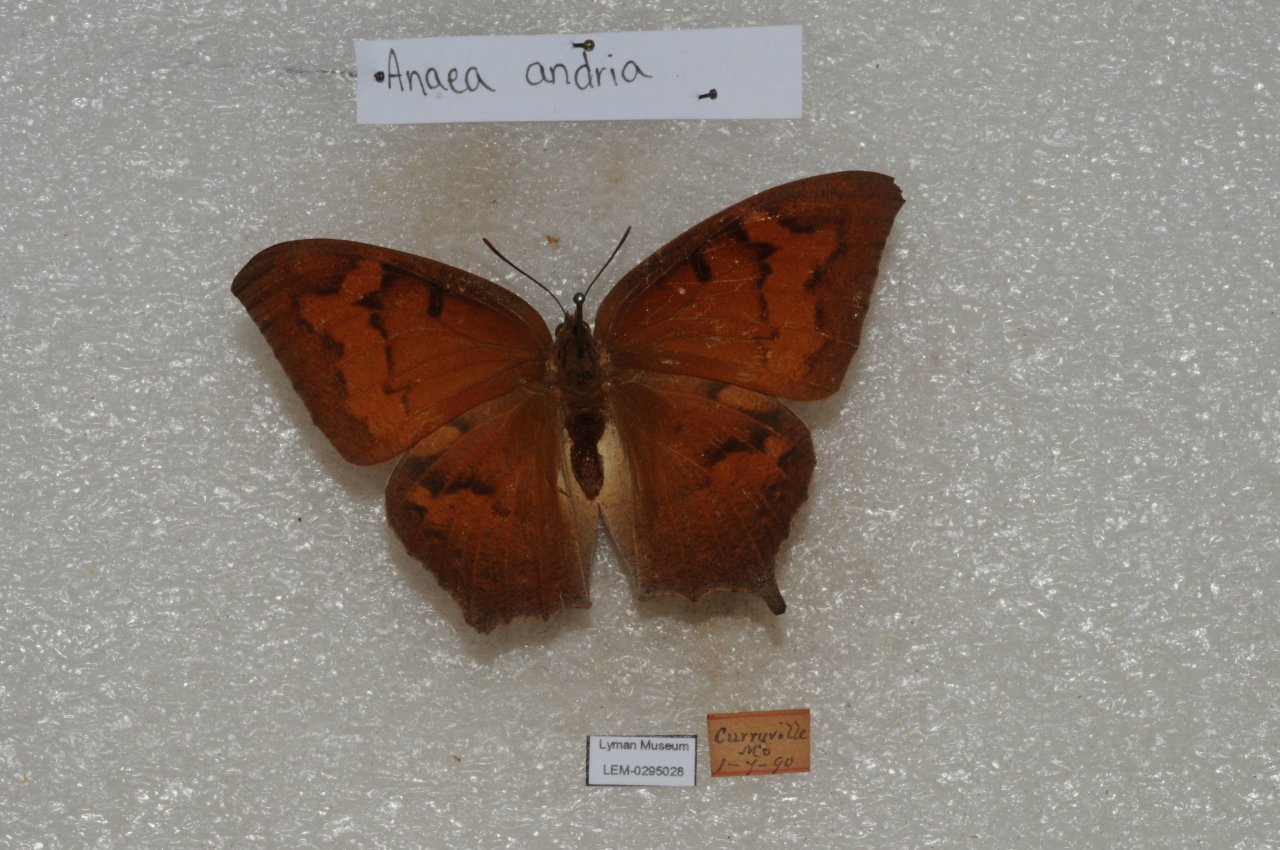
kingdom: Animalia
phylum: Arthropoda
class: Insecta
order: Lepidoptera
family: Nymphalidae
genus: Anaea
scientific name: Anaea andria
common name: Goatweed Leafwing
